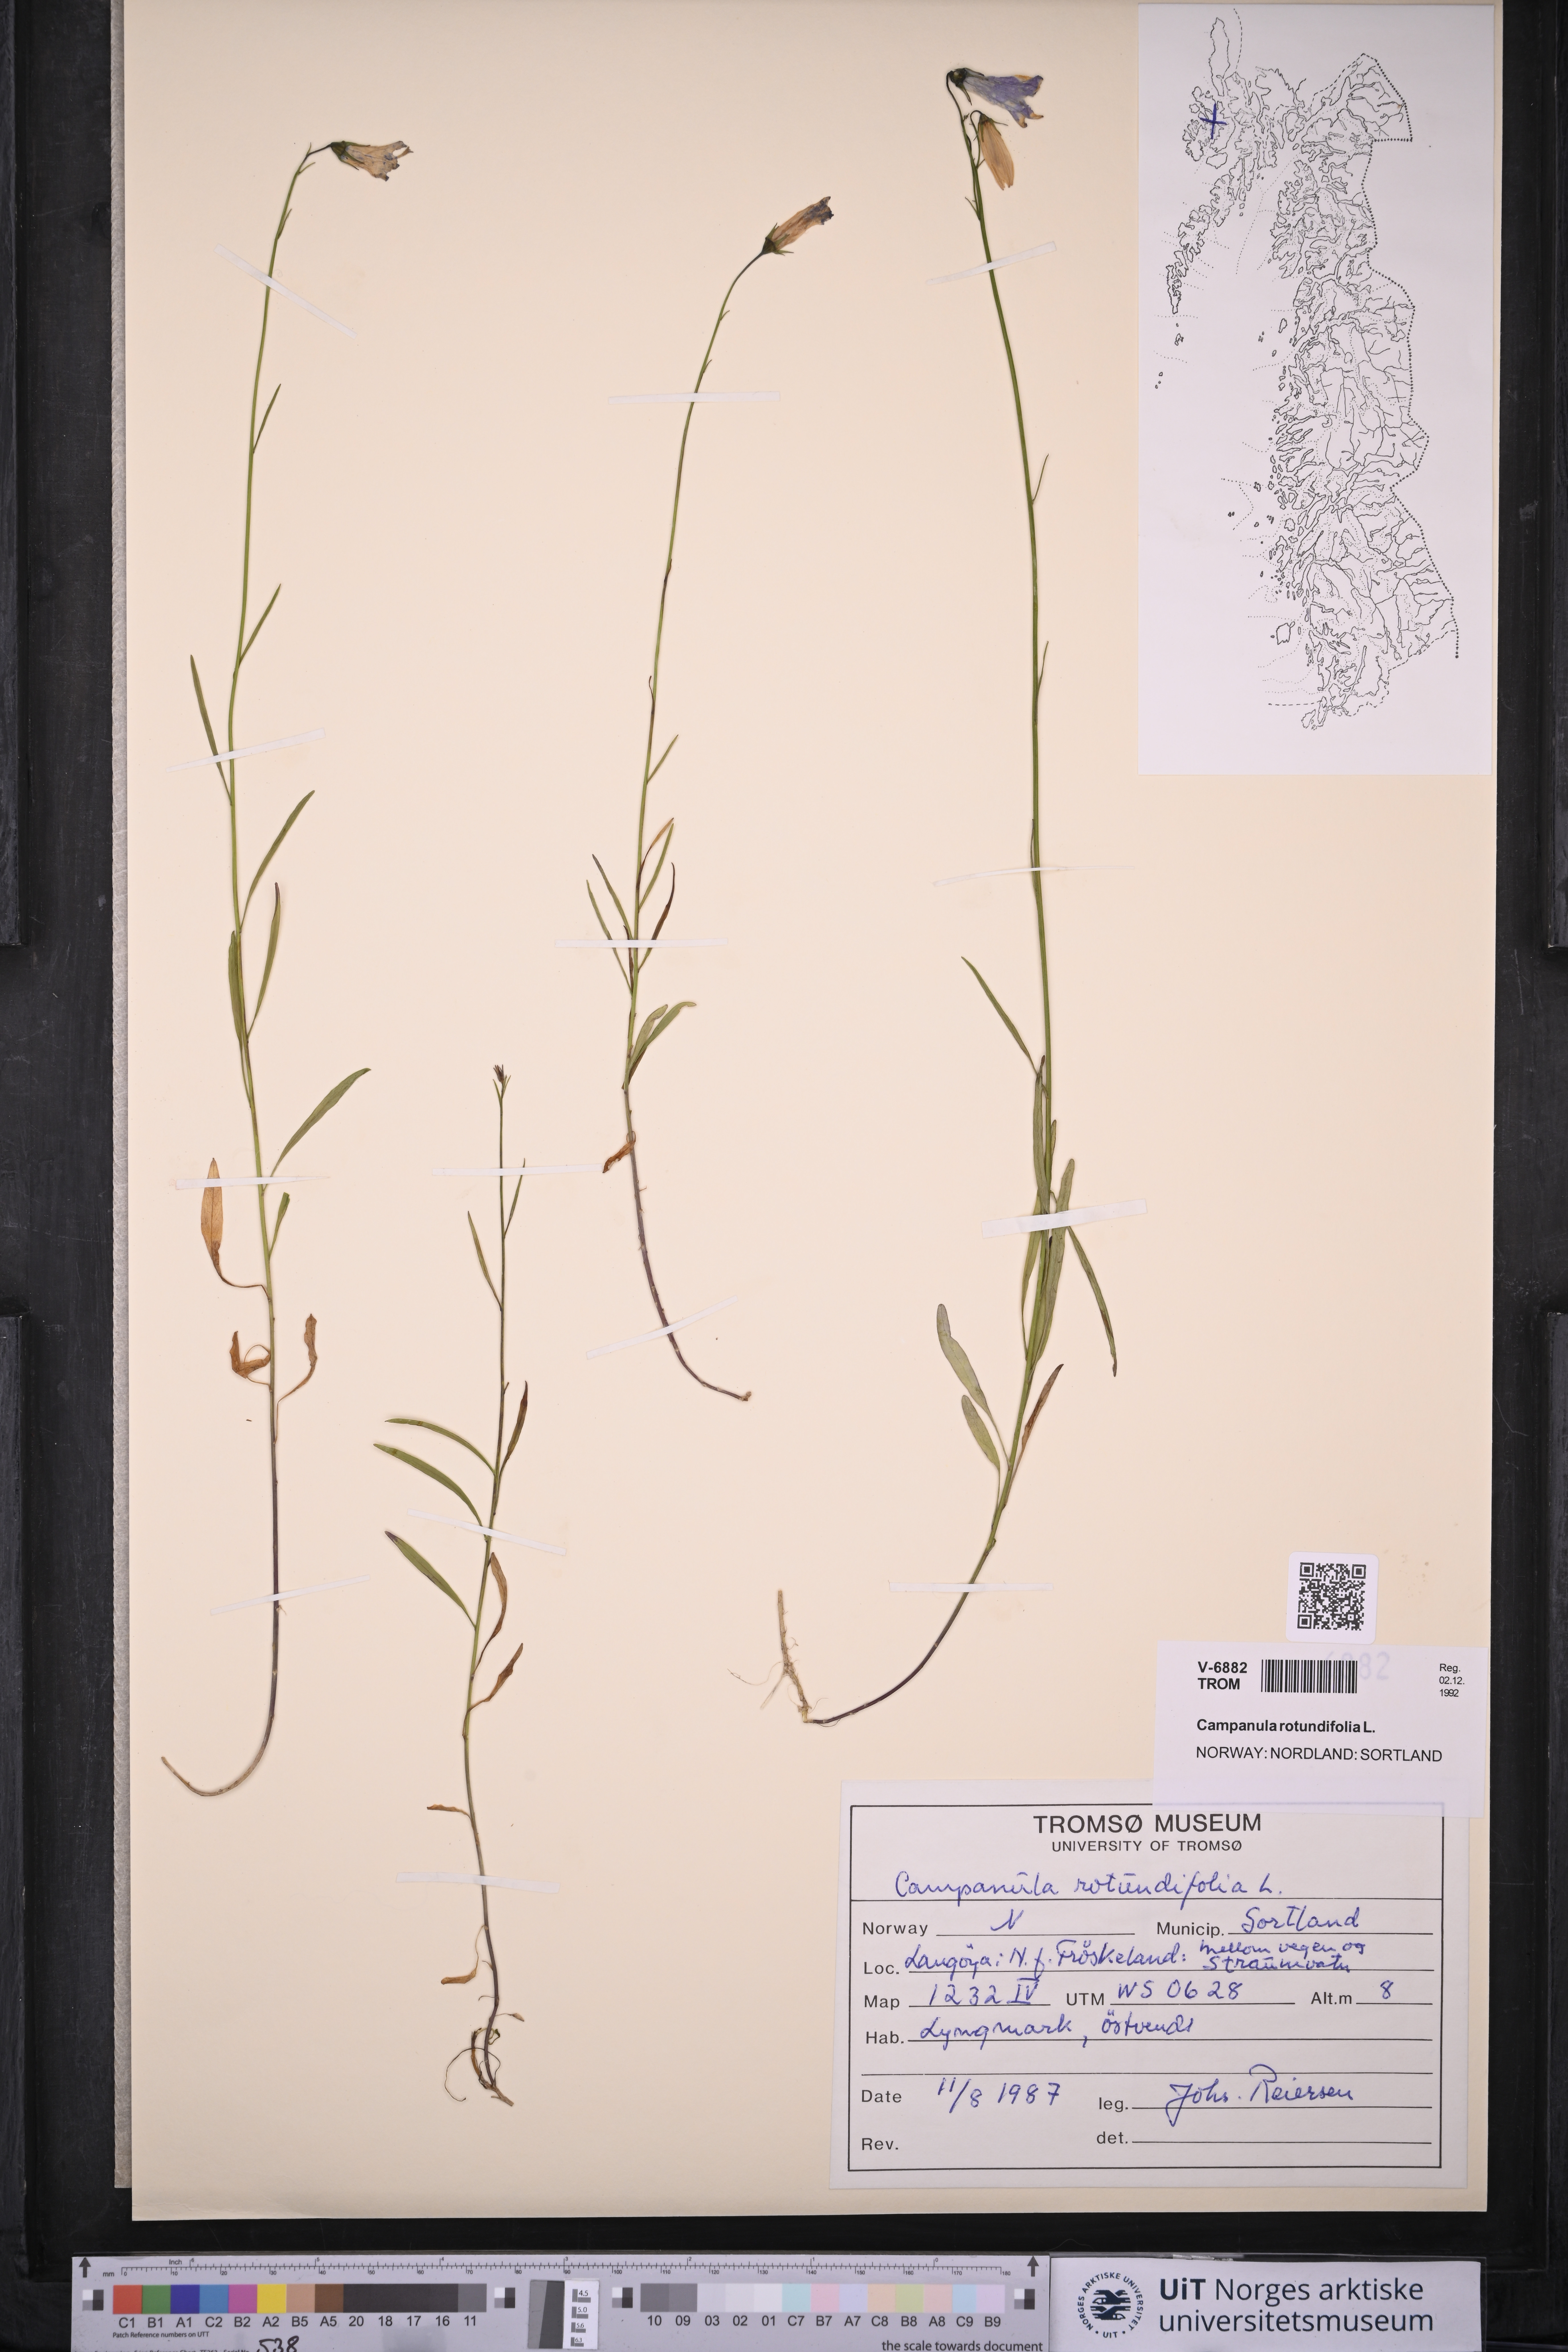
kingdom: Plantae
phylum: Tracheophyta
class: Magnoliopsida
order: Asterales
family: Campanulaceae
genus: Campanula
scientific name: Campanula rotundifolia
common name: Harebell
